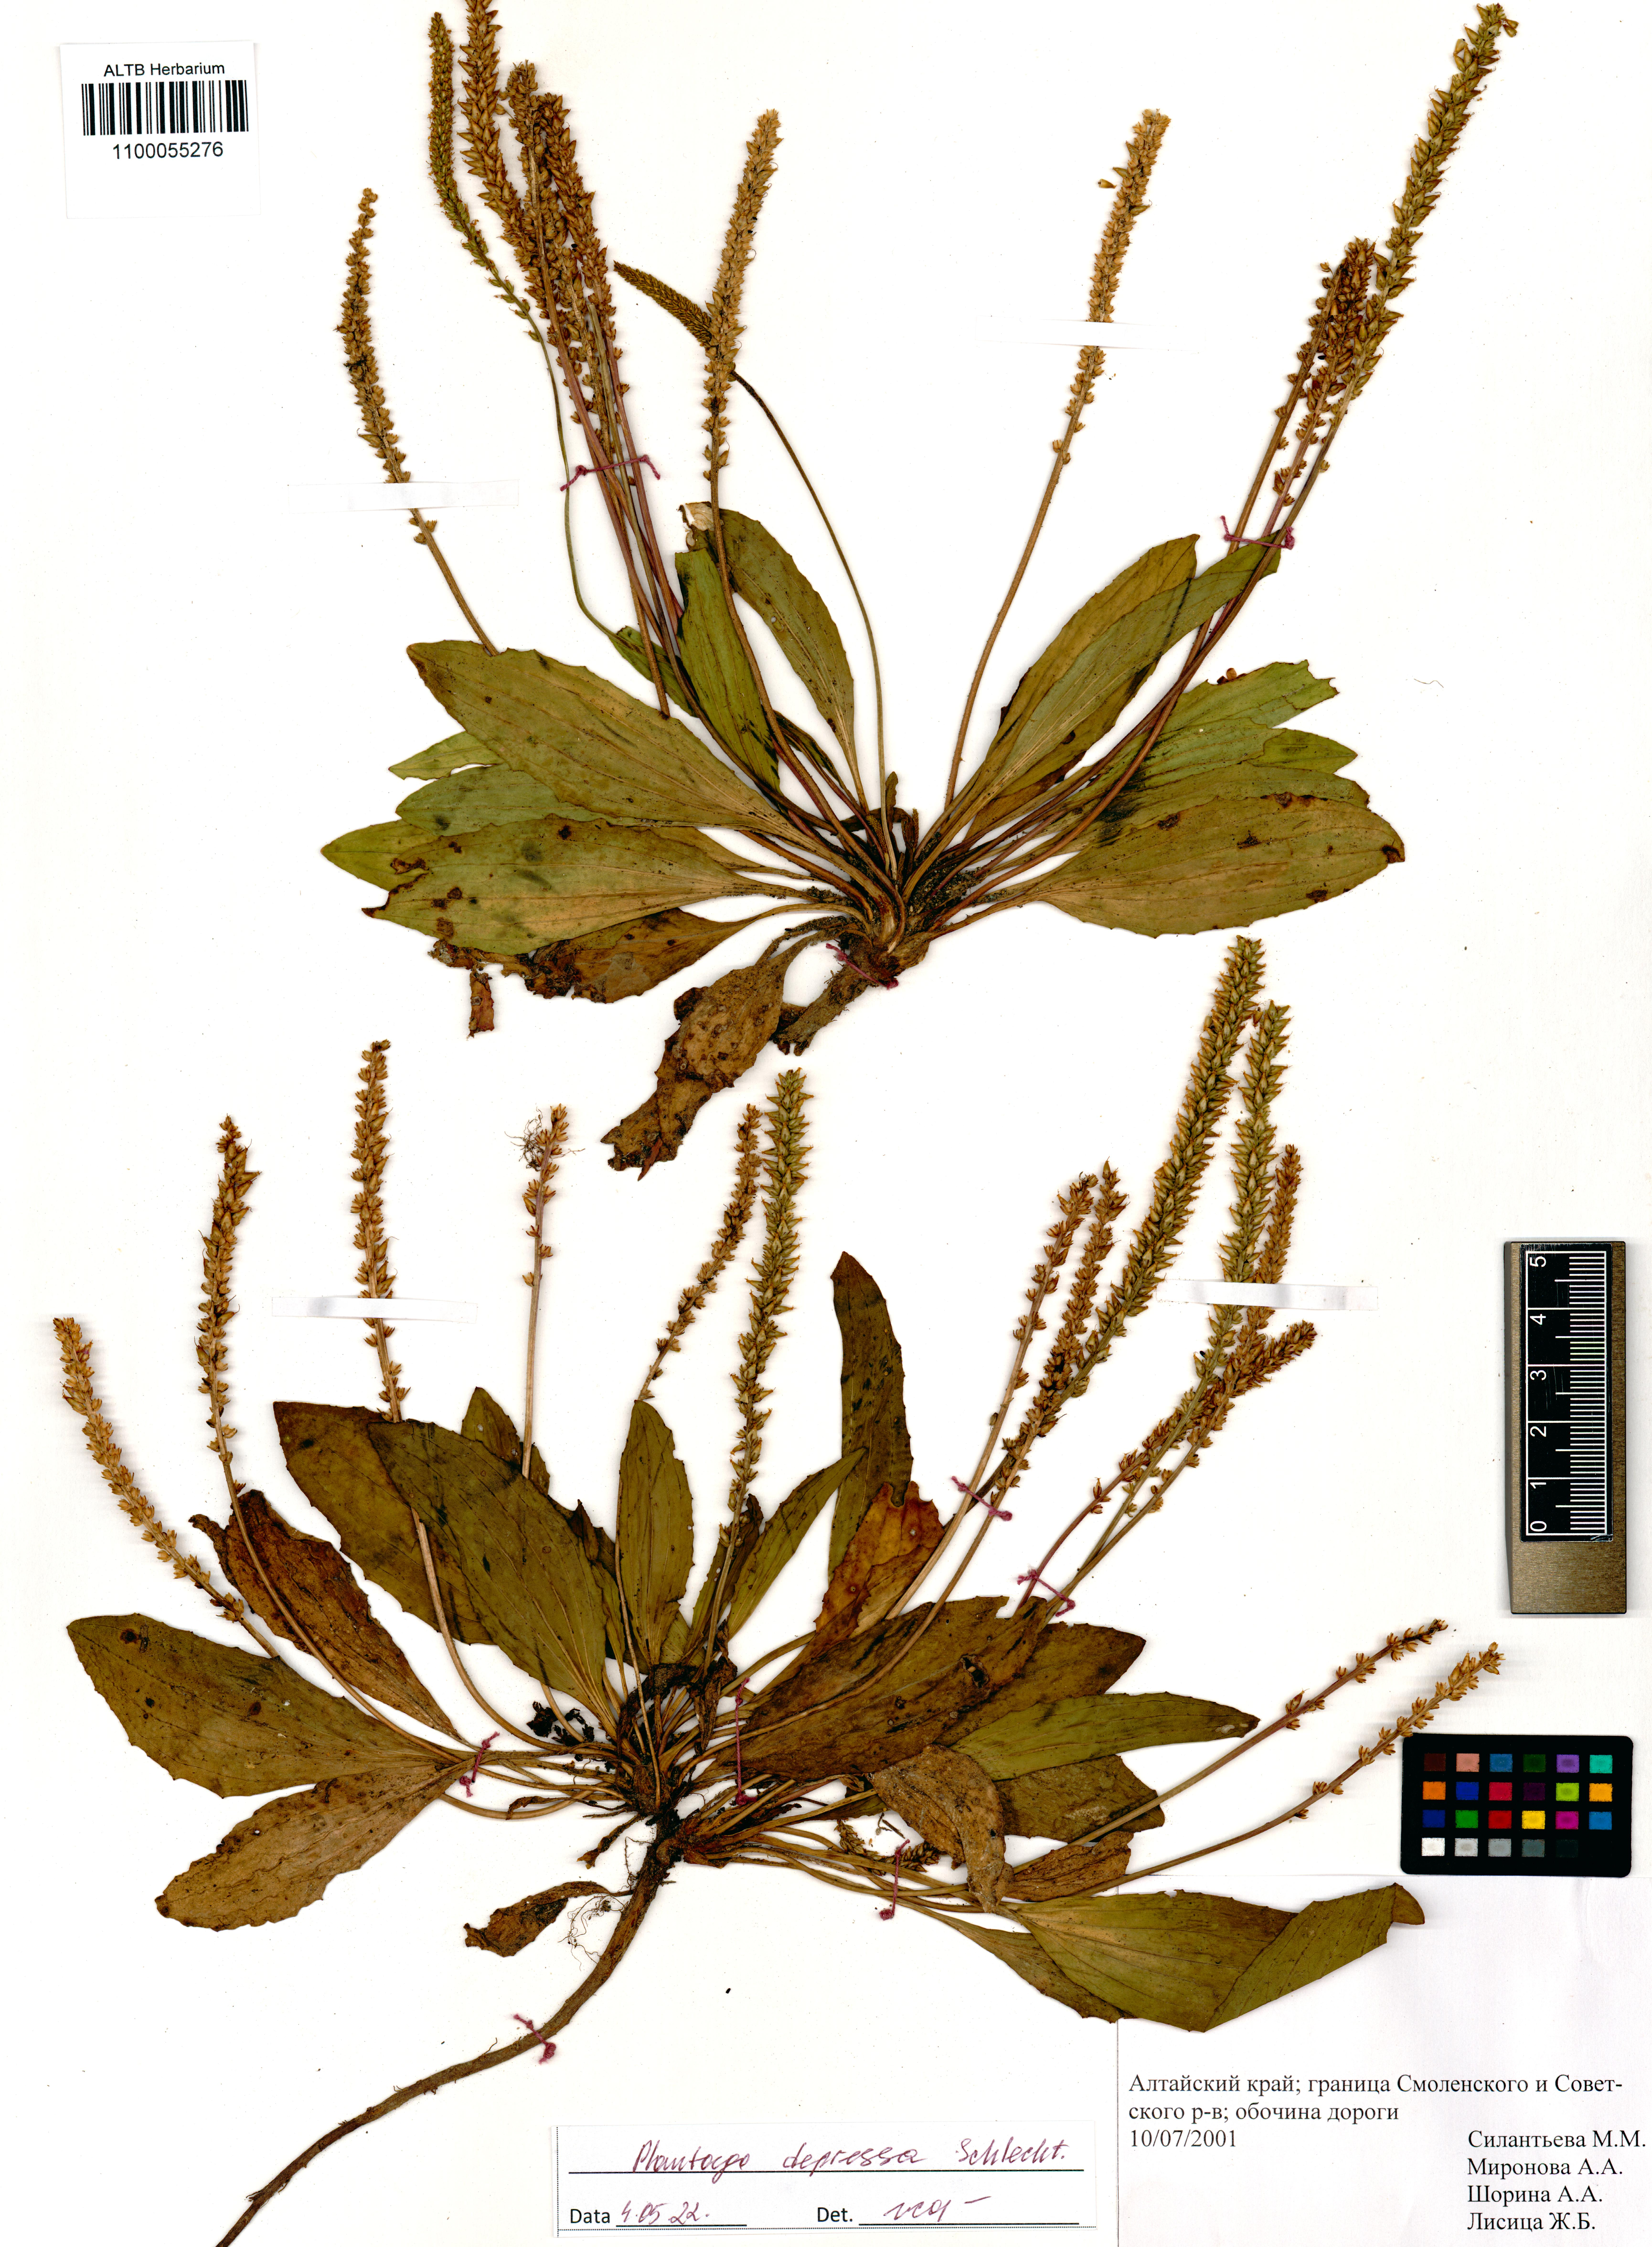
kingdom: Plantae
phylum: Tracheophyta
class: Magnoliopsida
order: Lamiales
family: Plantaginaceae
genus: Plantago
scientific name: Plantago depressa
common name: Depressed plantain
